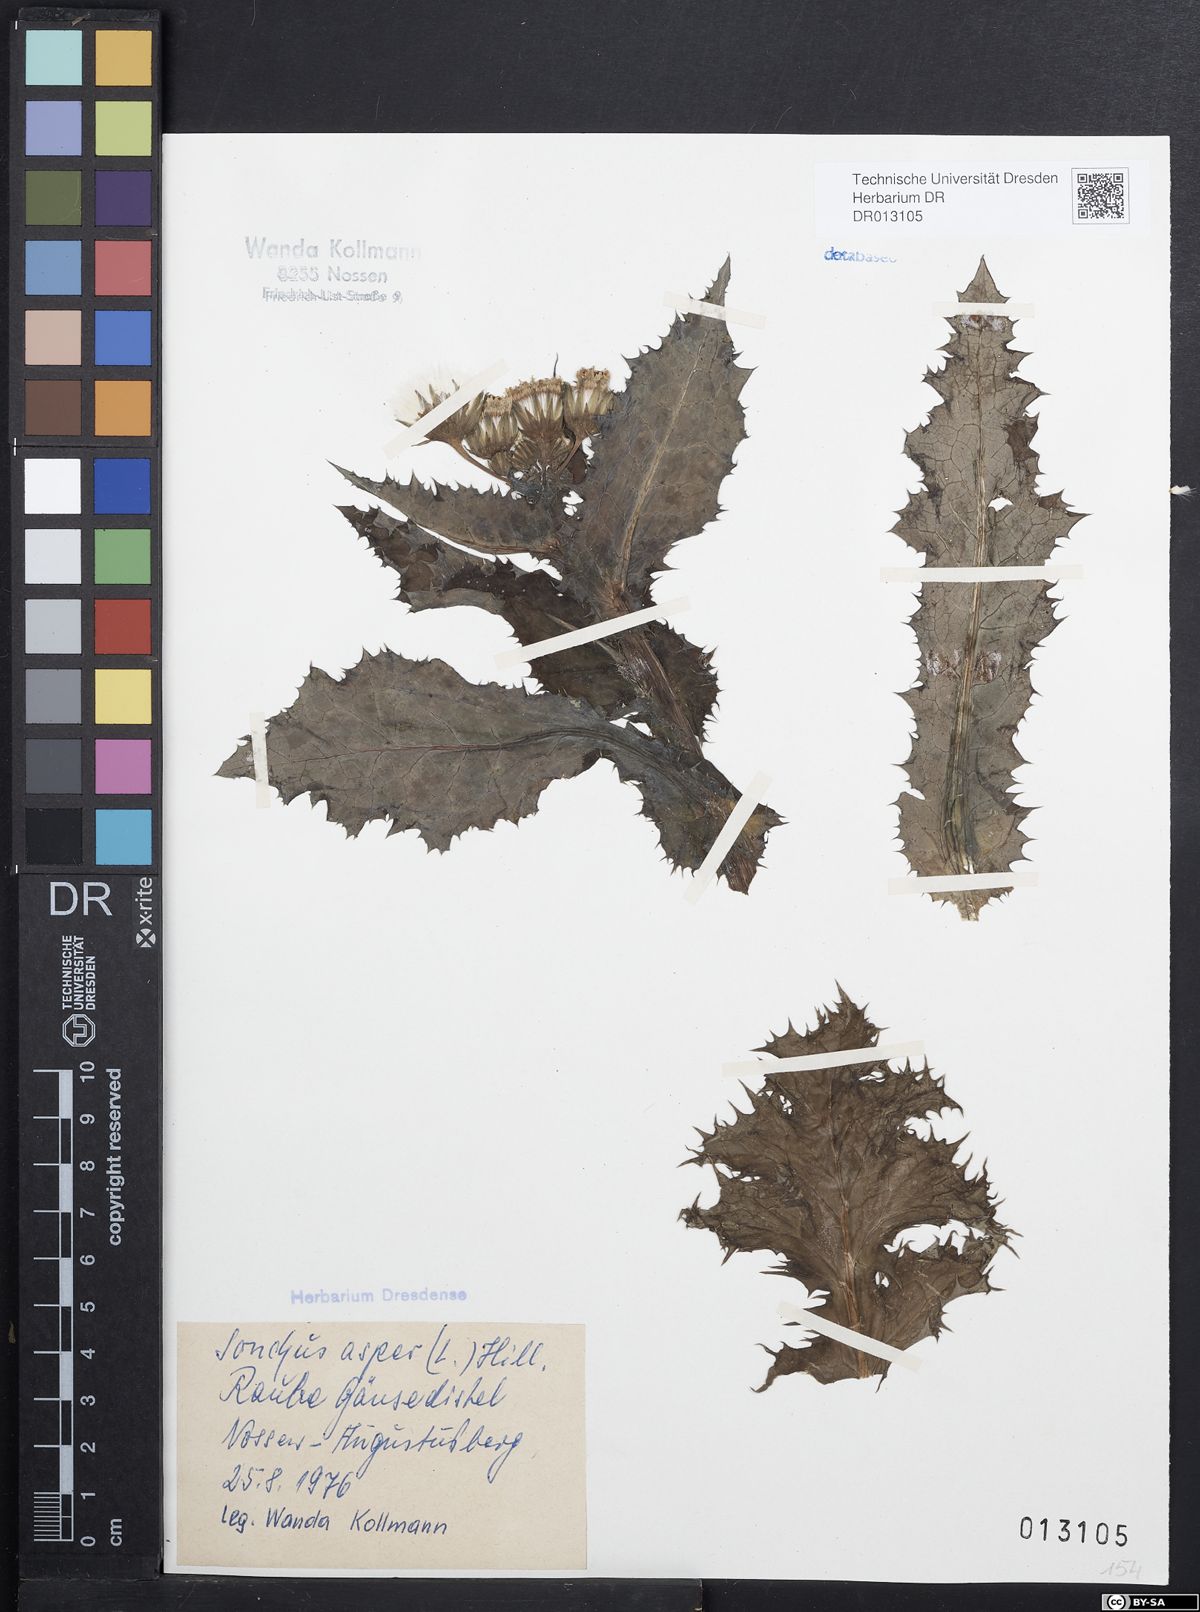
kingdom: Plantae
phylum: Tracheophyta
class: Magnoliopsida
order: Asterales
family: Asteraceae
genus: Sonchus
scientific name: Sonchus asper
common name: Prickly sow-thistle
